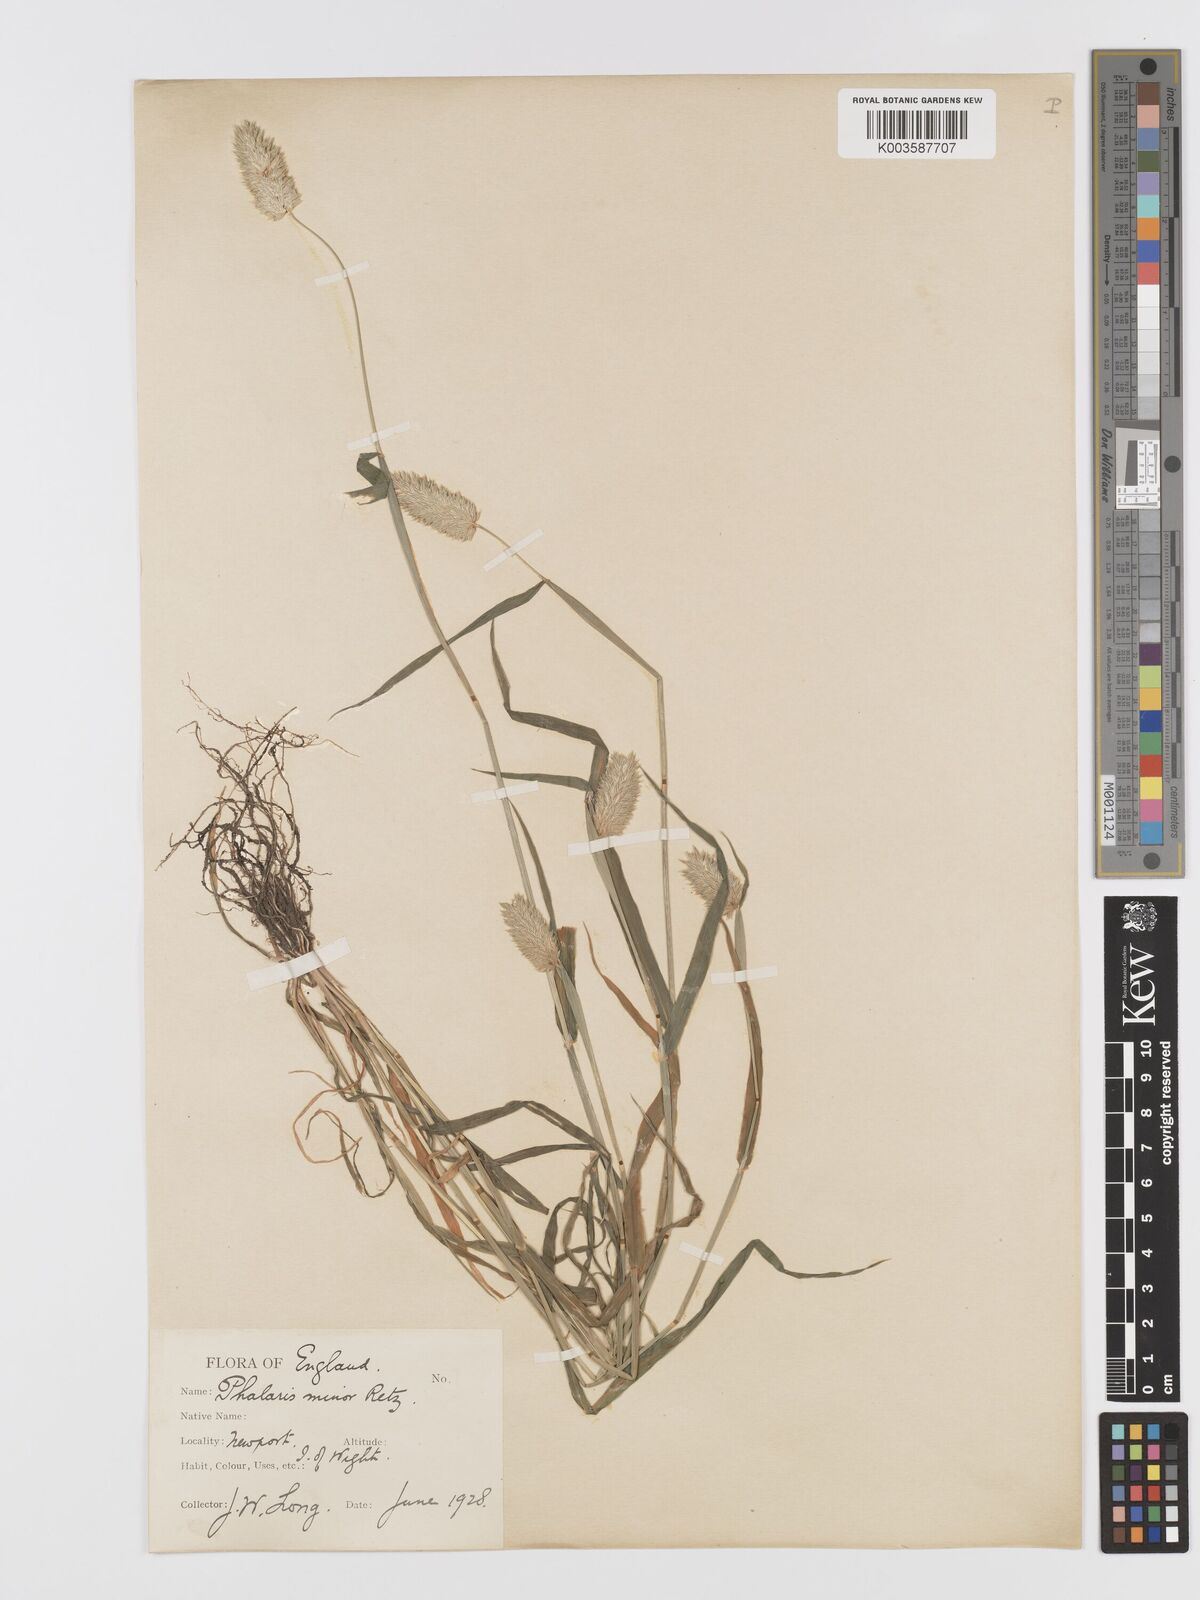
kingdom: Plantae
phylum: Tracheophyta
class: Liliopsida
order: Poales
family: Poaceae
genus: Phalaris
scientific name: Phalaris minor
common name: Littleseed canarygrass
